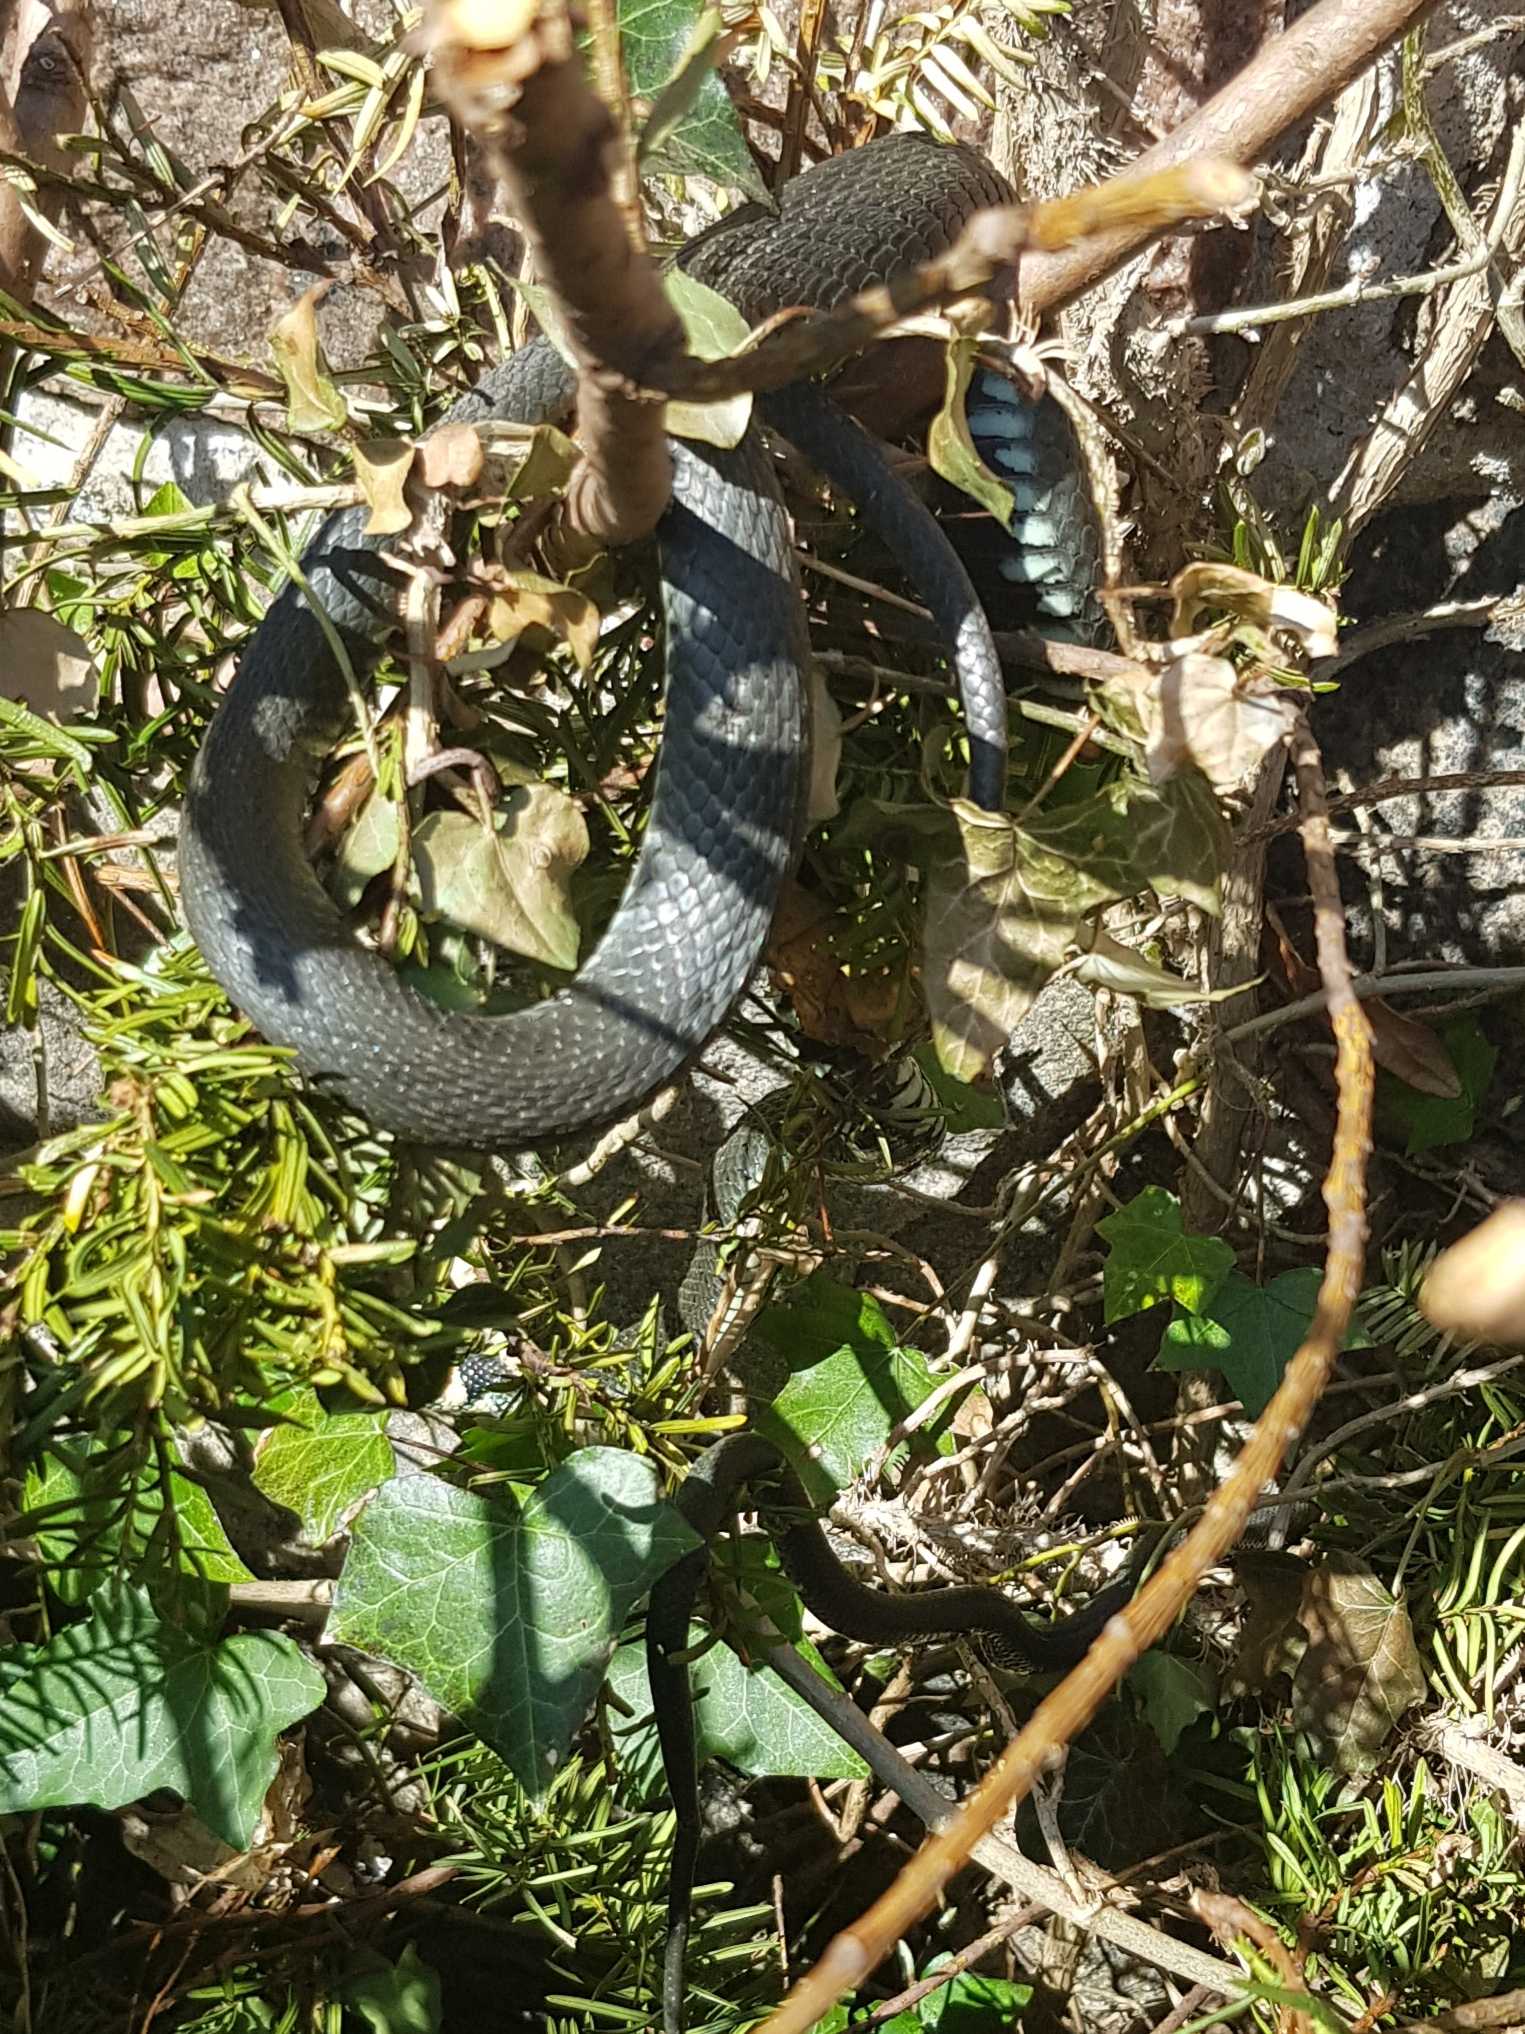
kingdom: Animalia
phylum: Chordata
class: Squamata
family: Colubridae
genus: Natrix
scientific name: Natrix natrix
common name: Snog
